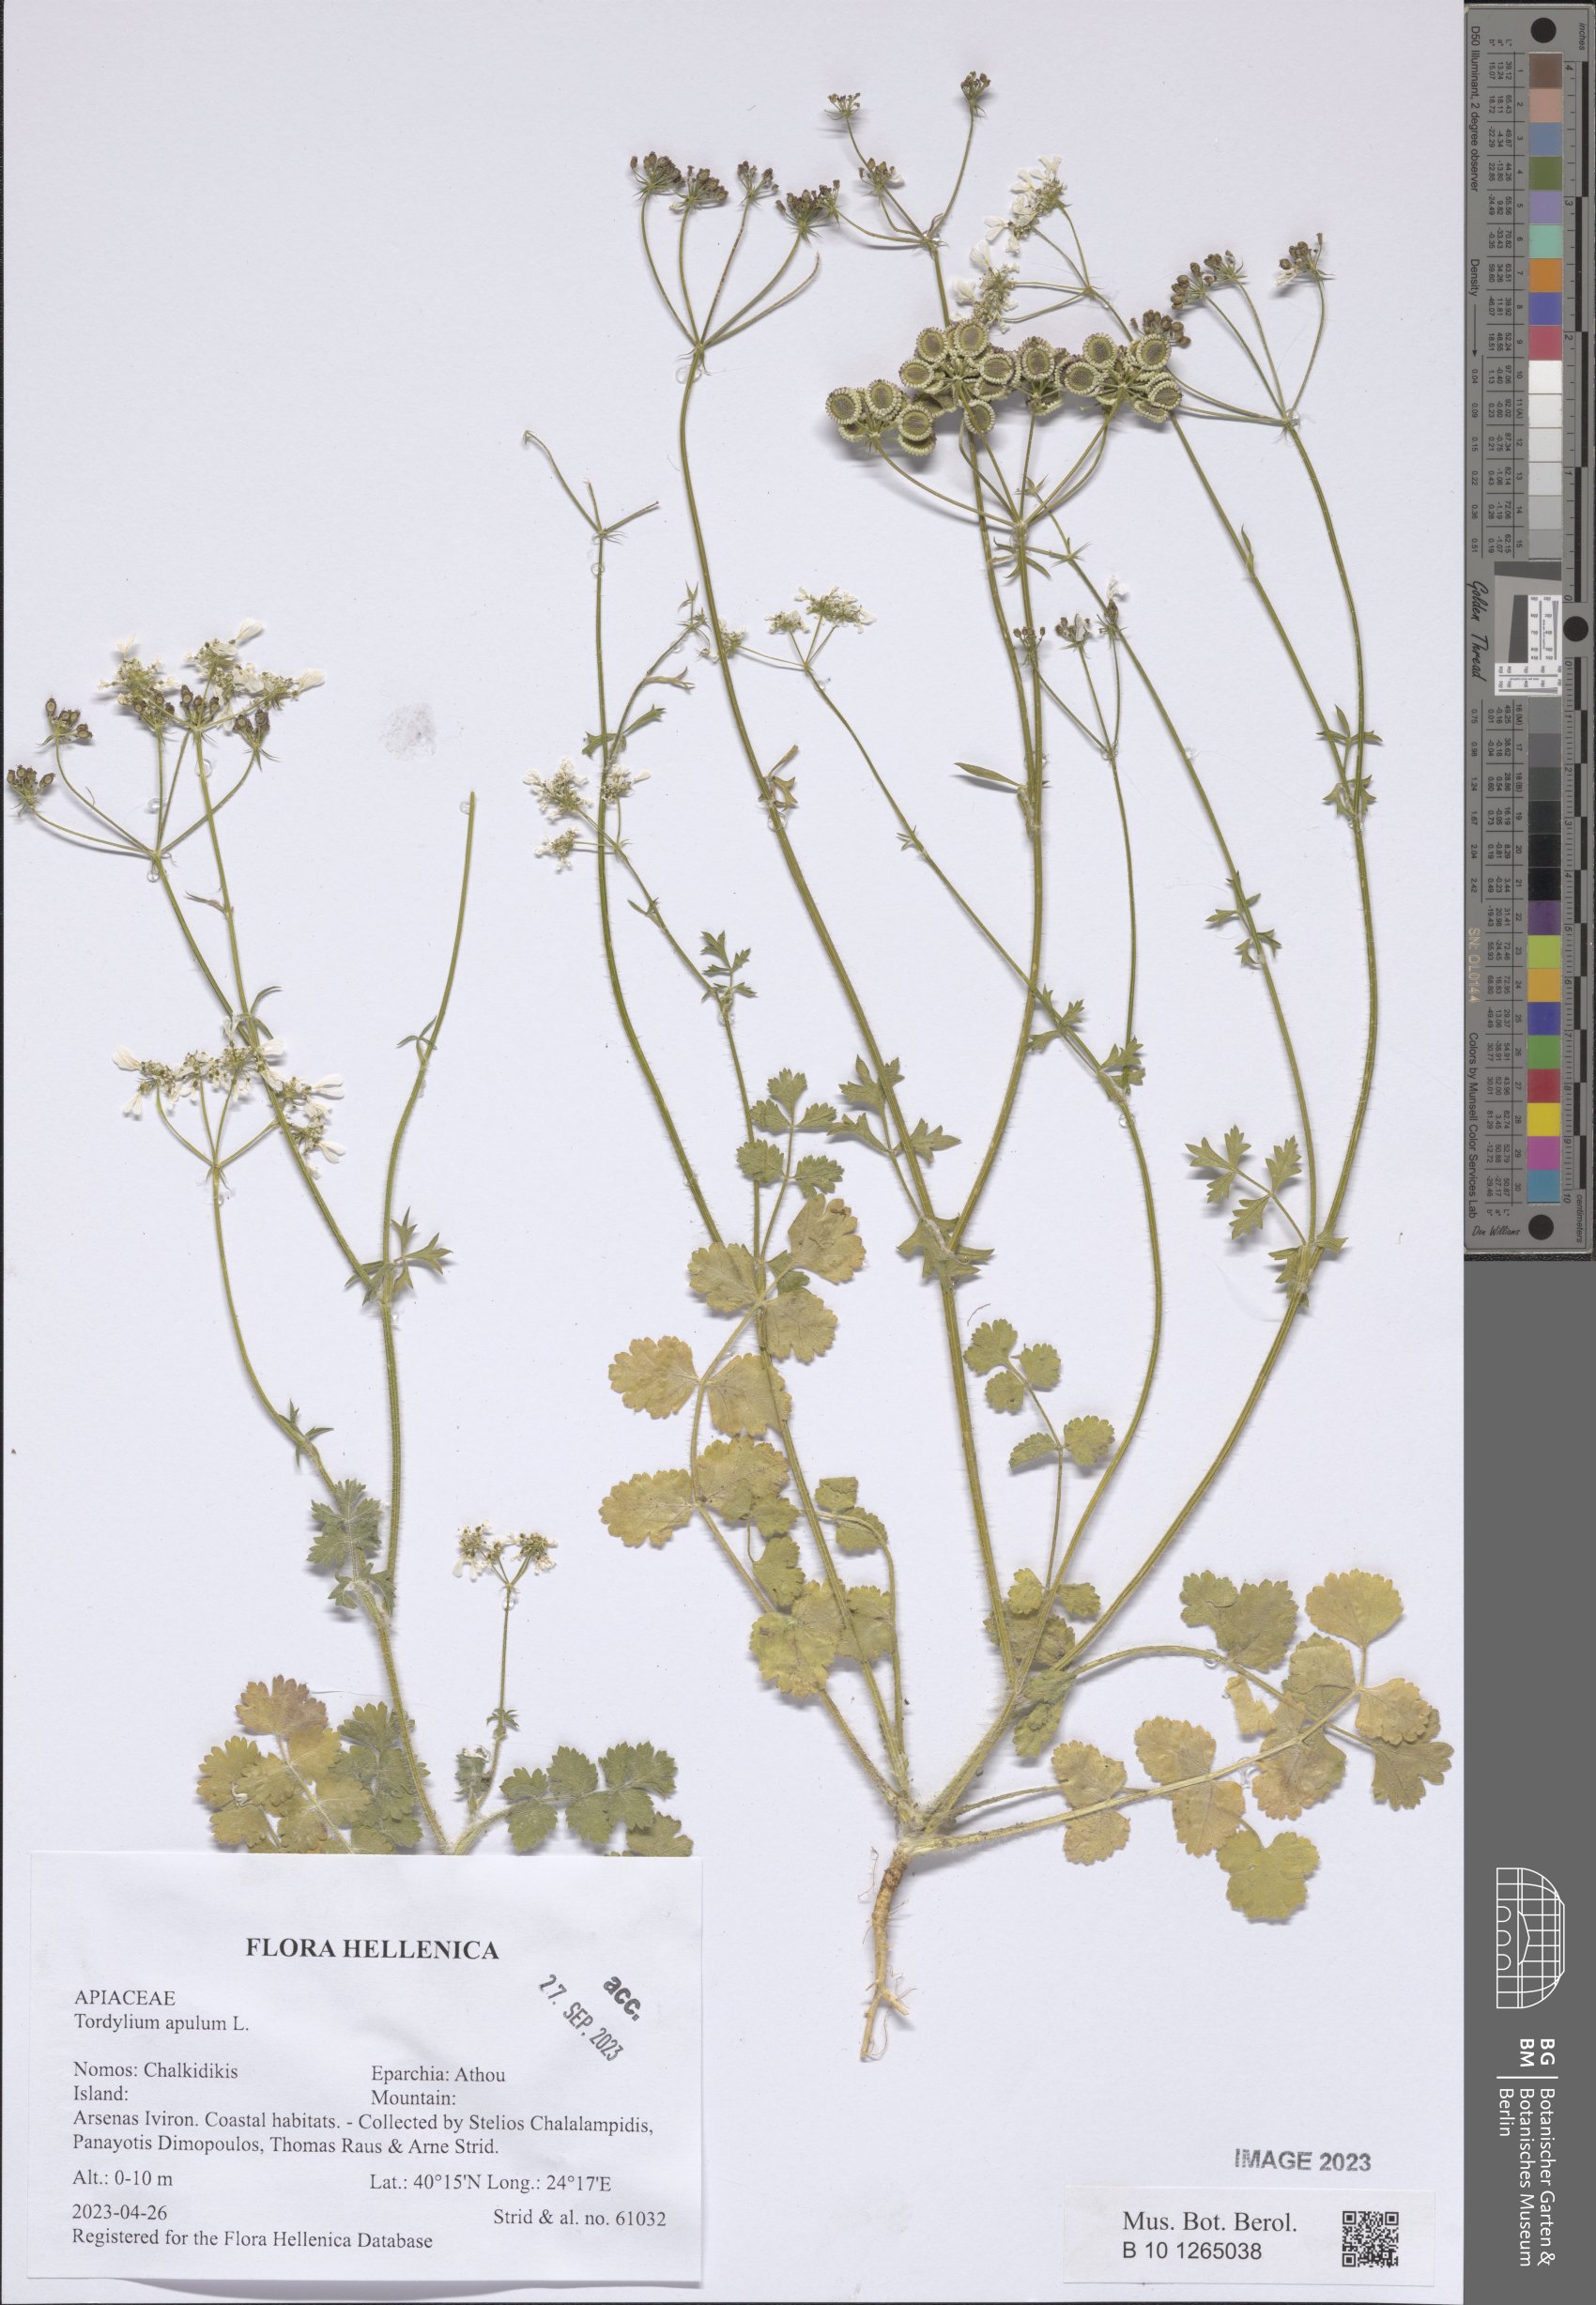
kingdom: Plantae
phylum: Tracheophyta
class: Magnoliopsida
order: Apiales
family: Apiaceae
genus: Tordylium
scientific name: Tordylium apulum
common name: Mediterranean hartwort
